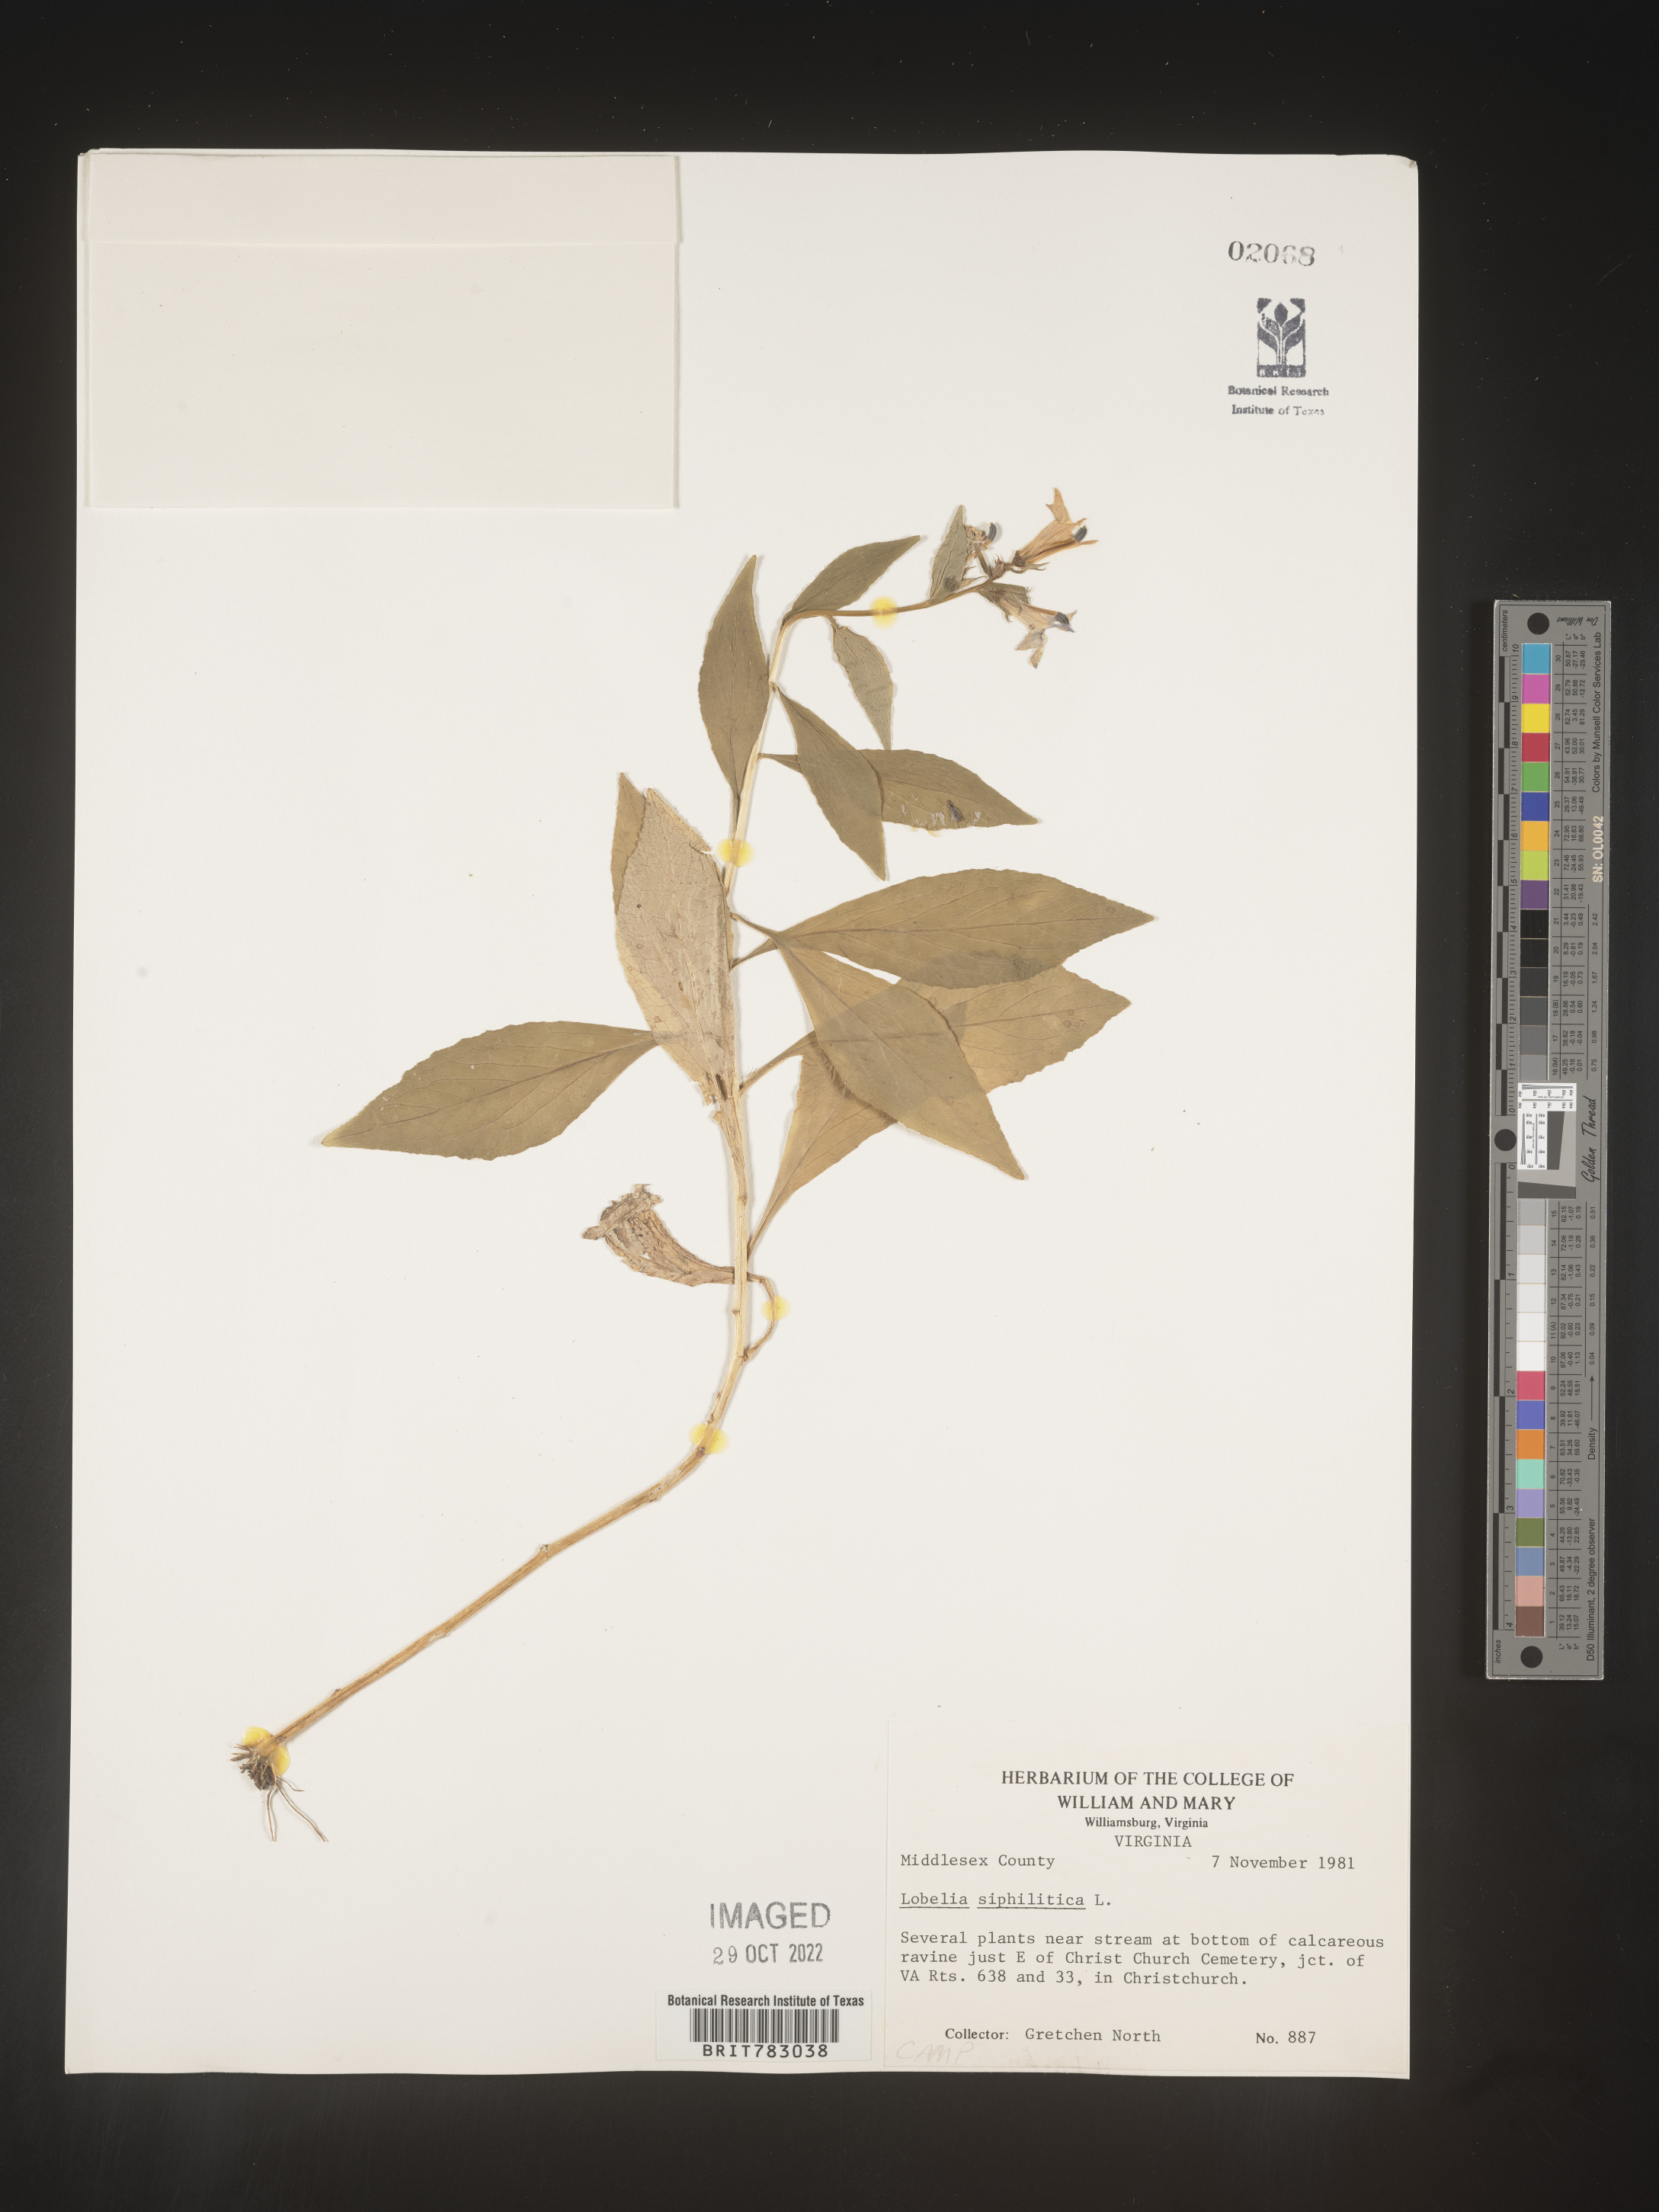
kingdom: Plantae
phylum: Tracheophyta
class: Magnoliopsida
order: Asterales
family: Campanulaceae
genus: Lobelia
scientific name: Lobelia siphilitica
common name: Great lobelia
